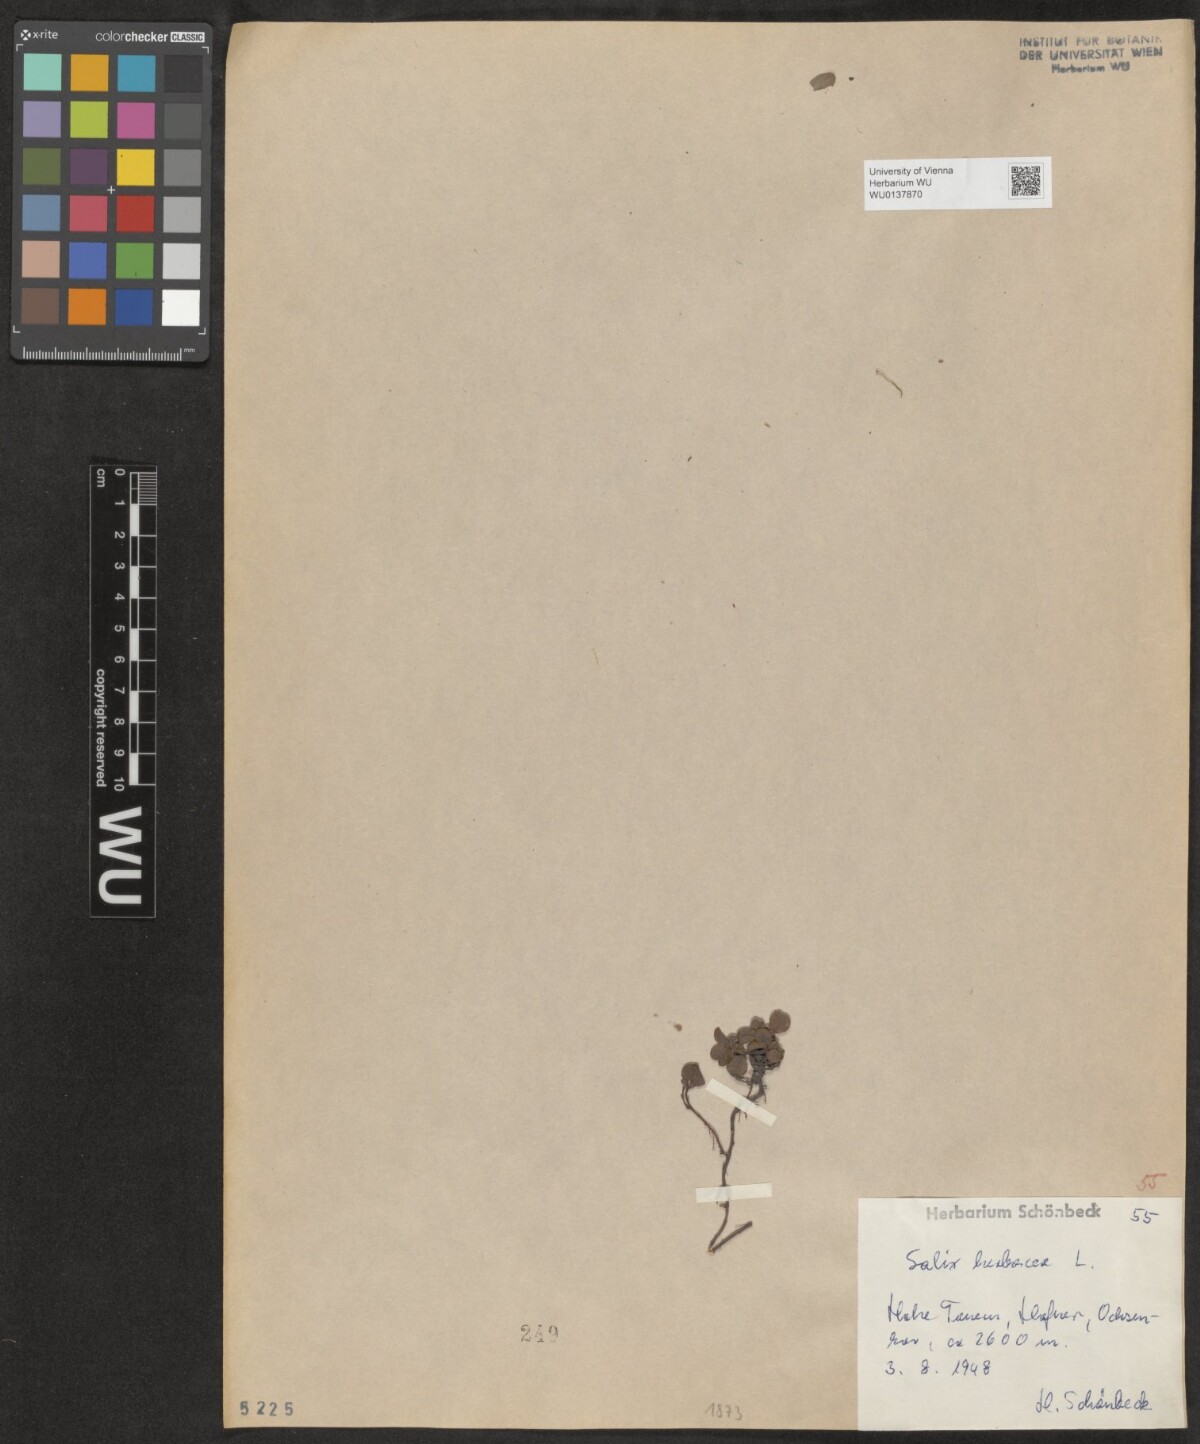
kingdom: Plantae
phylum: Tracheophyta
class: Magnoliopsida
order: Malpighiales
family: Salicaceae
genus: Salix
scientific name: Salix herbacea
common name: Dwarf willow
